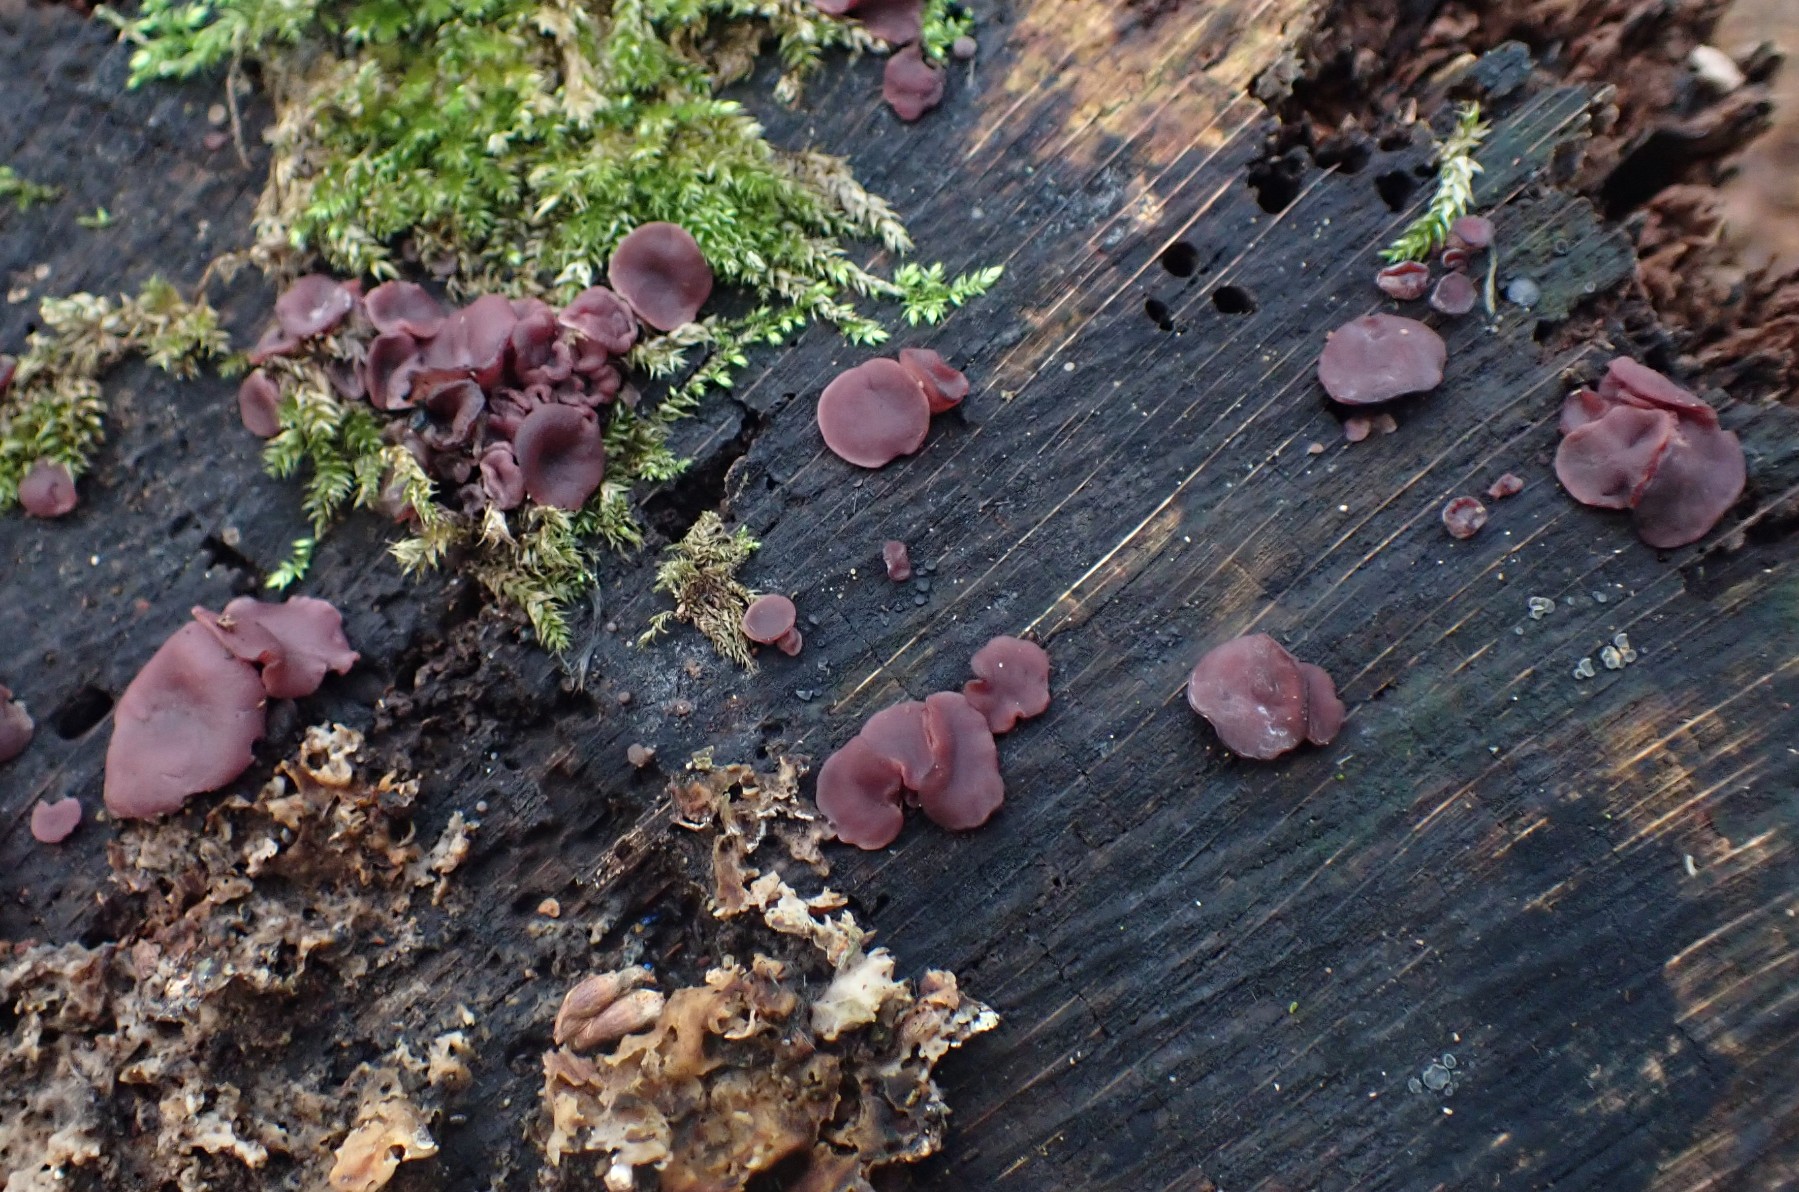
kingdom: Fungi
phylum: Ascomycota
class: Leotiomycetes
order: Helotiales
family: Gelatinodiscaceae
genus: Ascocoryne
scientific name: Ascocoryne cylichnium
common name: stor sejskive
